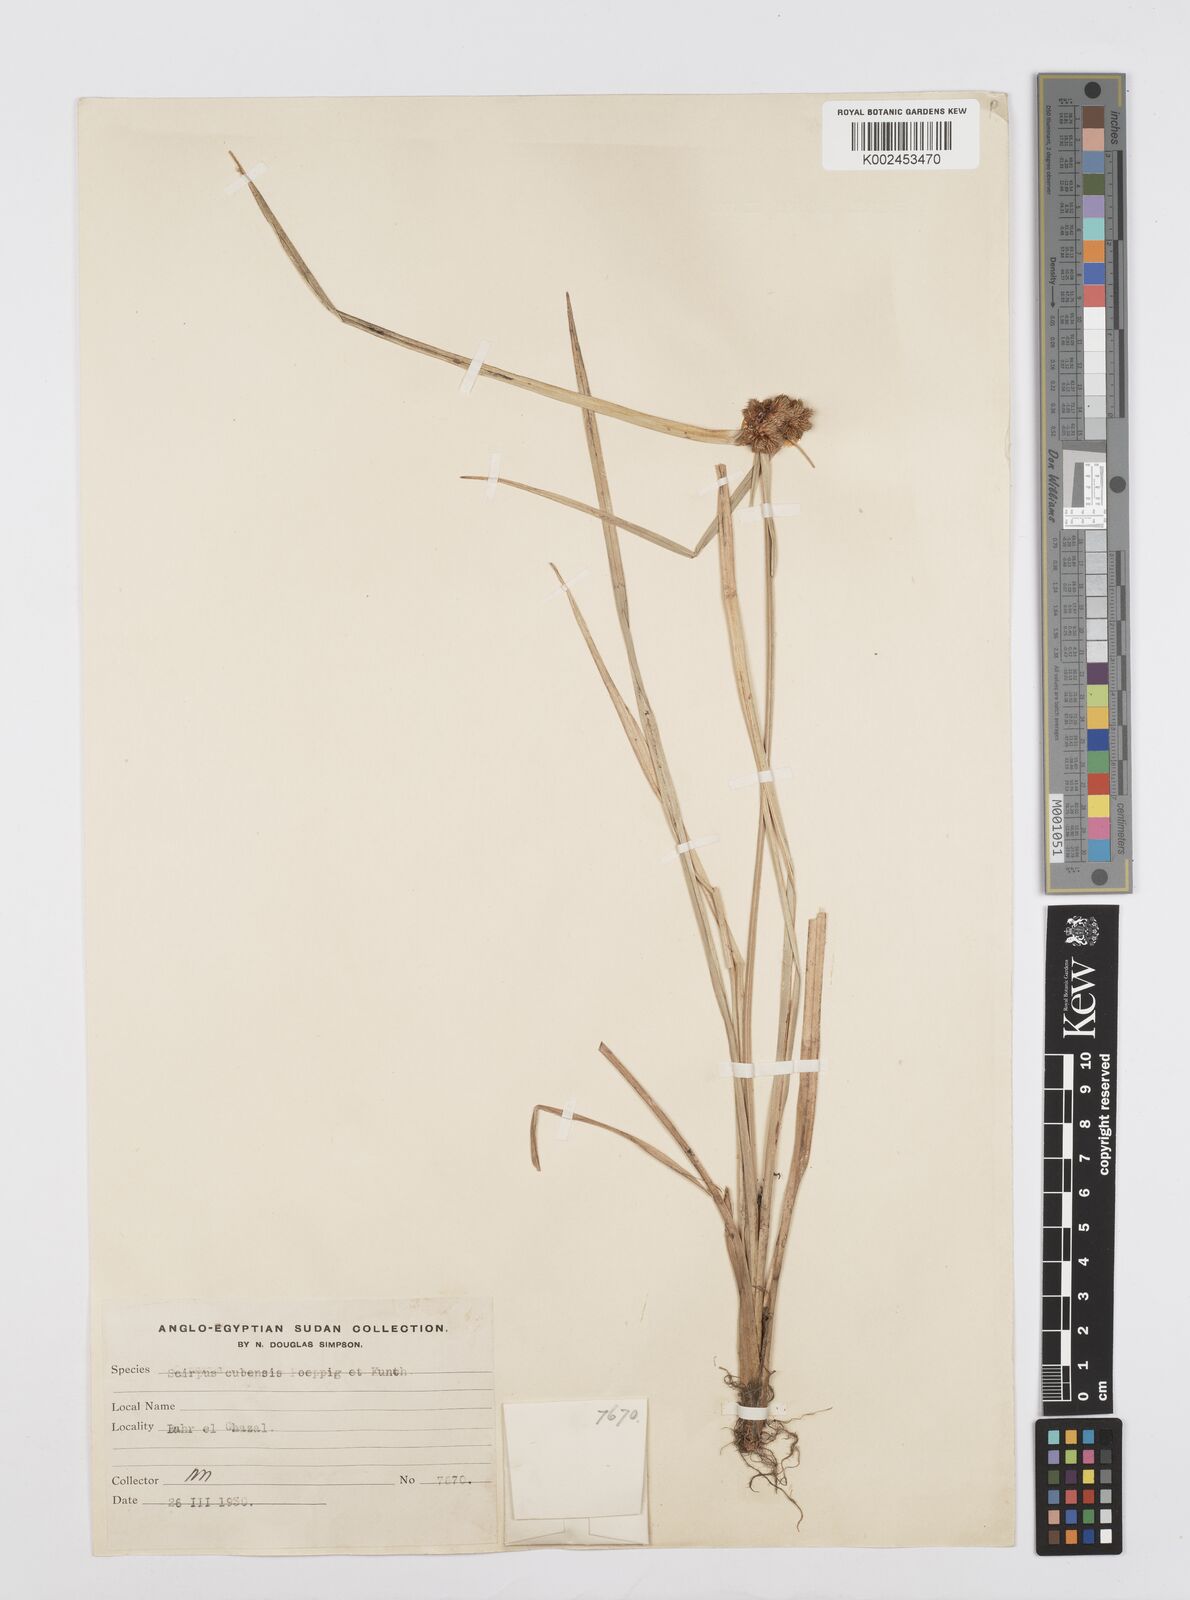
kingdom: Plantae
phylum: Tracheophyta
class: Liliopsida
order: Poales
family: Cyperaceae
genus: Cyperus
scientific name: Cyperus elegans
